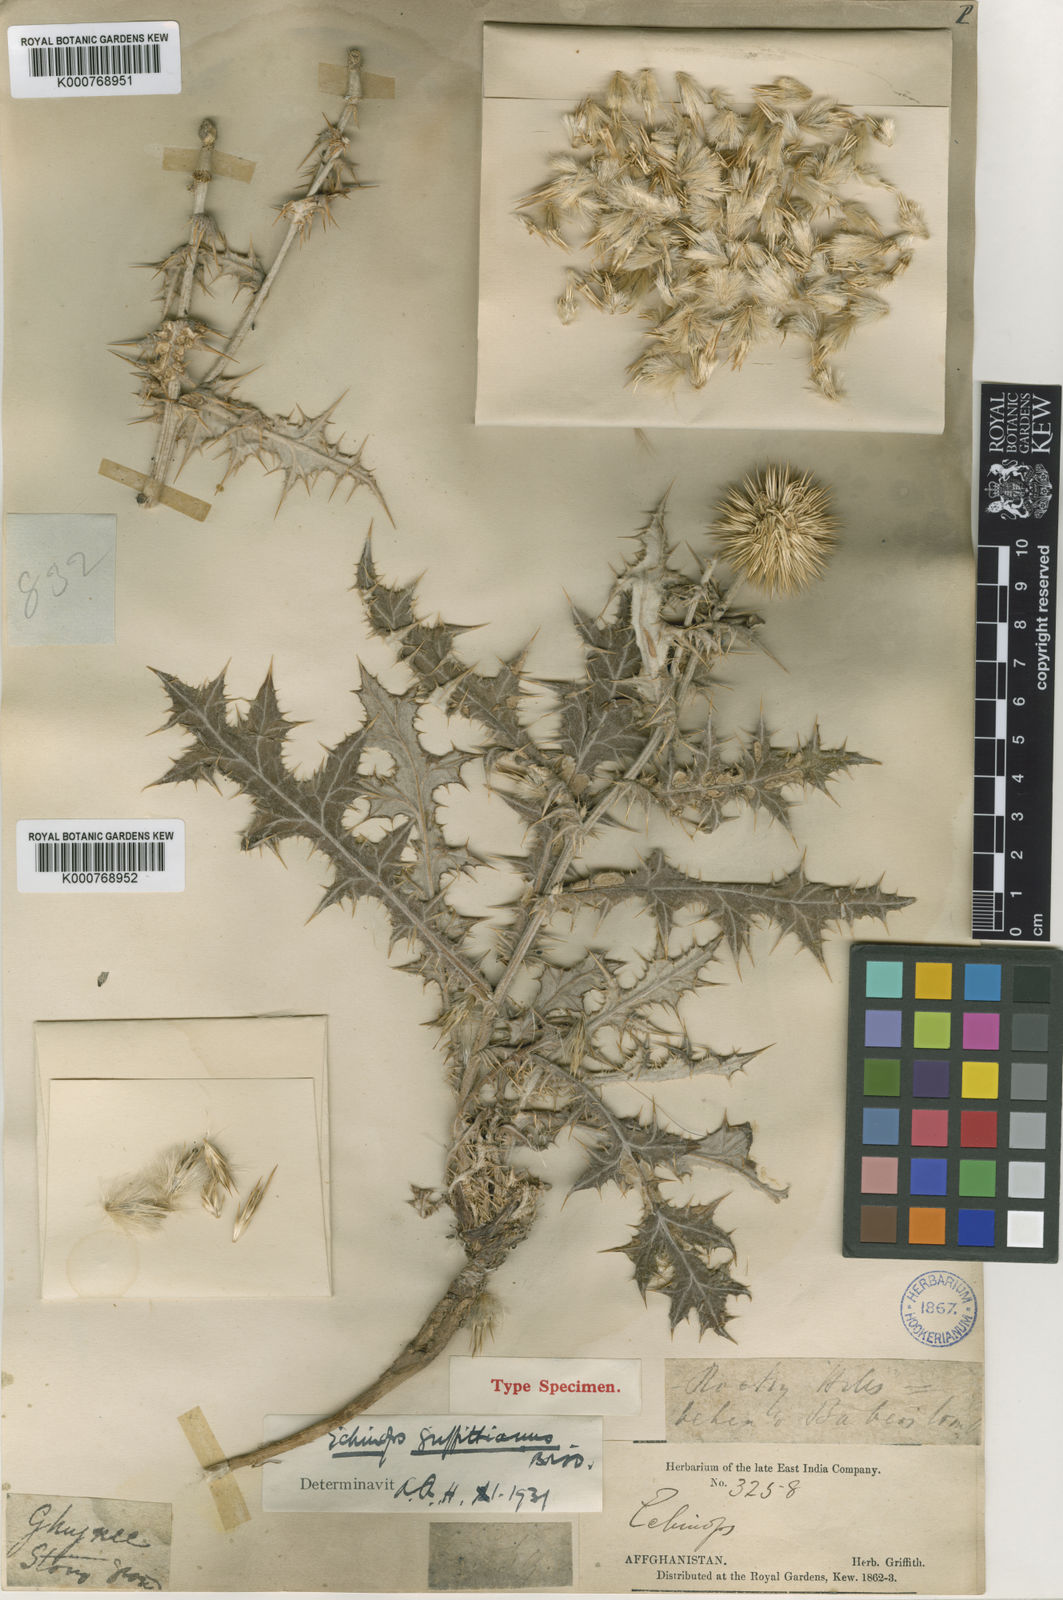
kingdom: Plantae
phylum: Tracheophyta
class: Magnoliopsida
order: Asterales
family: Asteraceae
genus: Echinops
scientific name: Echinops griffithianus
